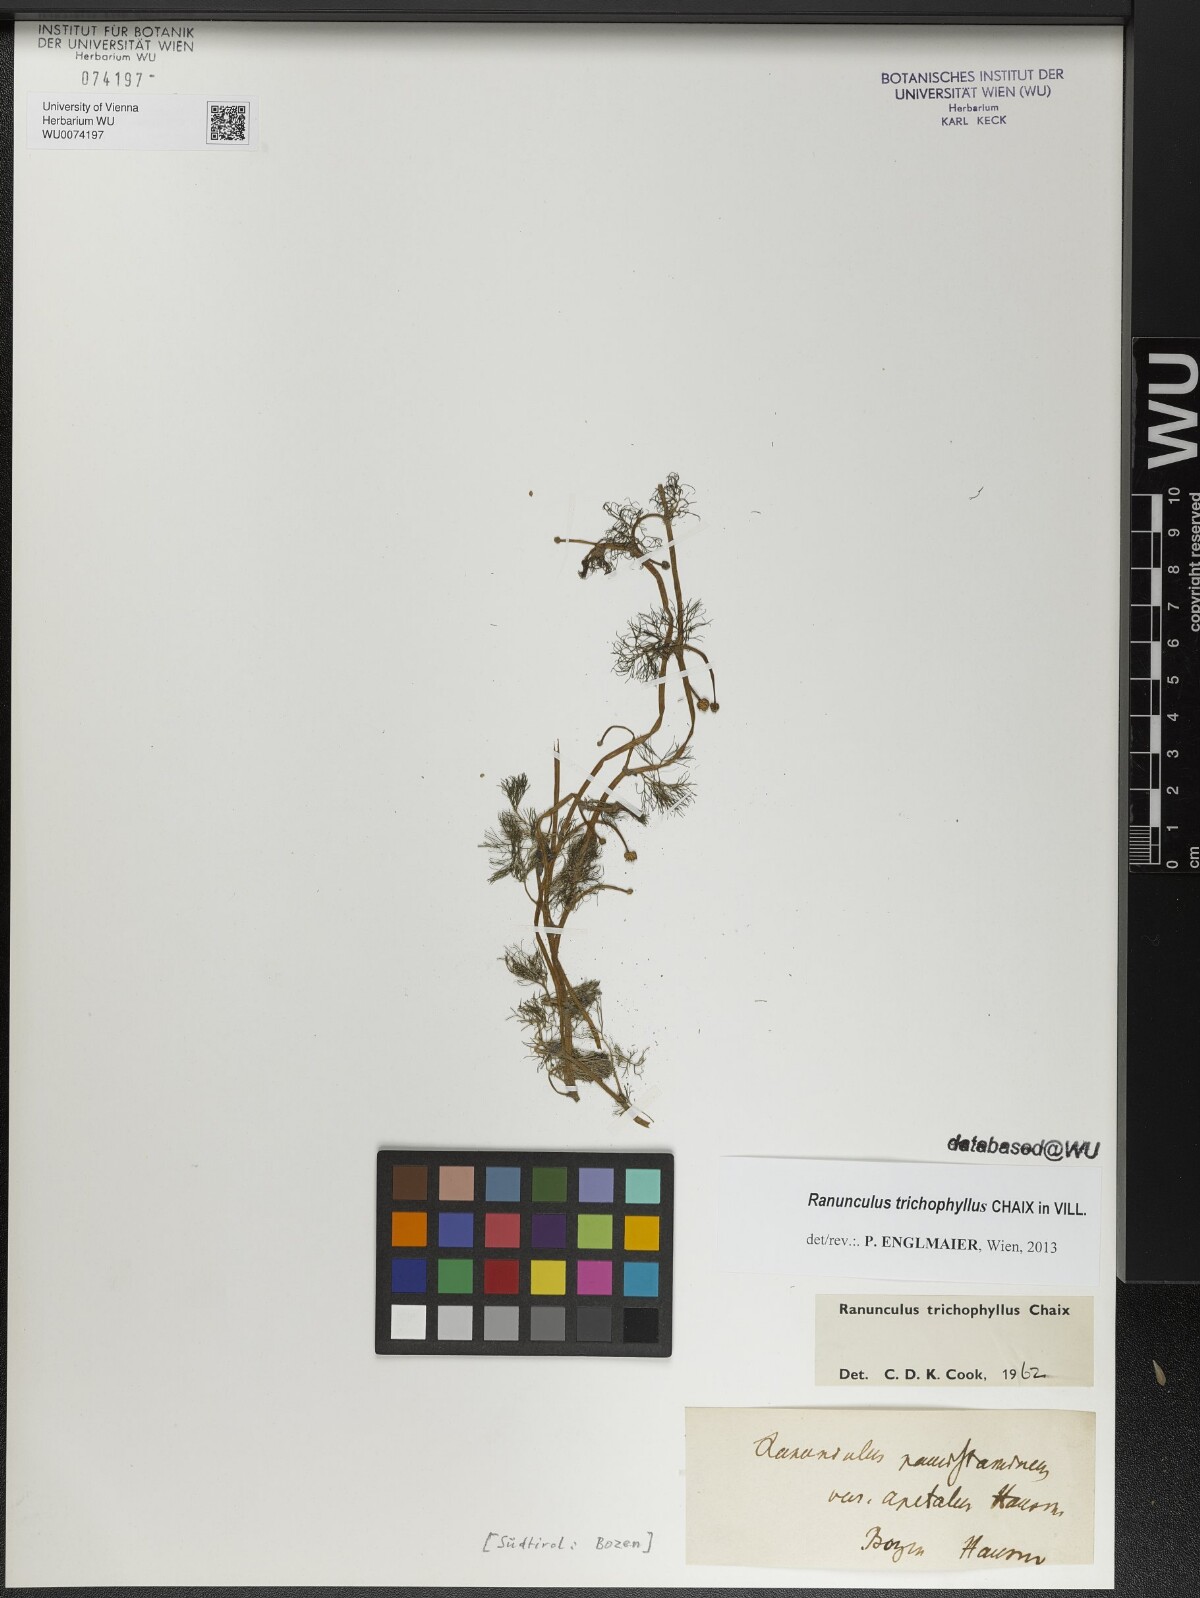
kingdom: Plantae
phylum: Tracheophyta
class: Magnoliopsida
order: Ranunculales
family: Ranunculaceae
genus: Ranunculus
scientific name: Ranunculus trichophyllus
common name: Thread-leaved water-crowfoot
